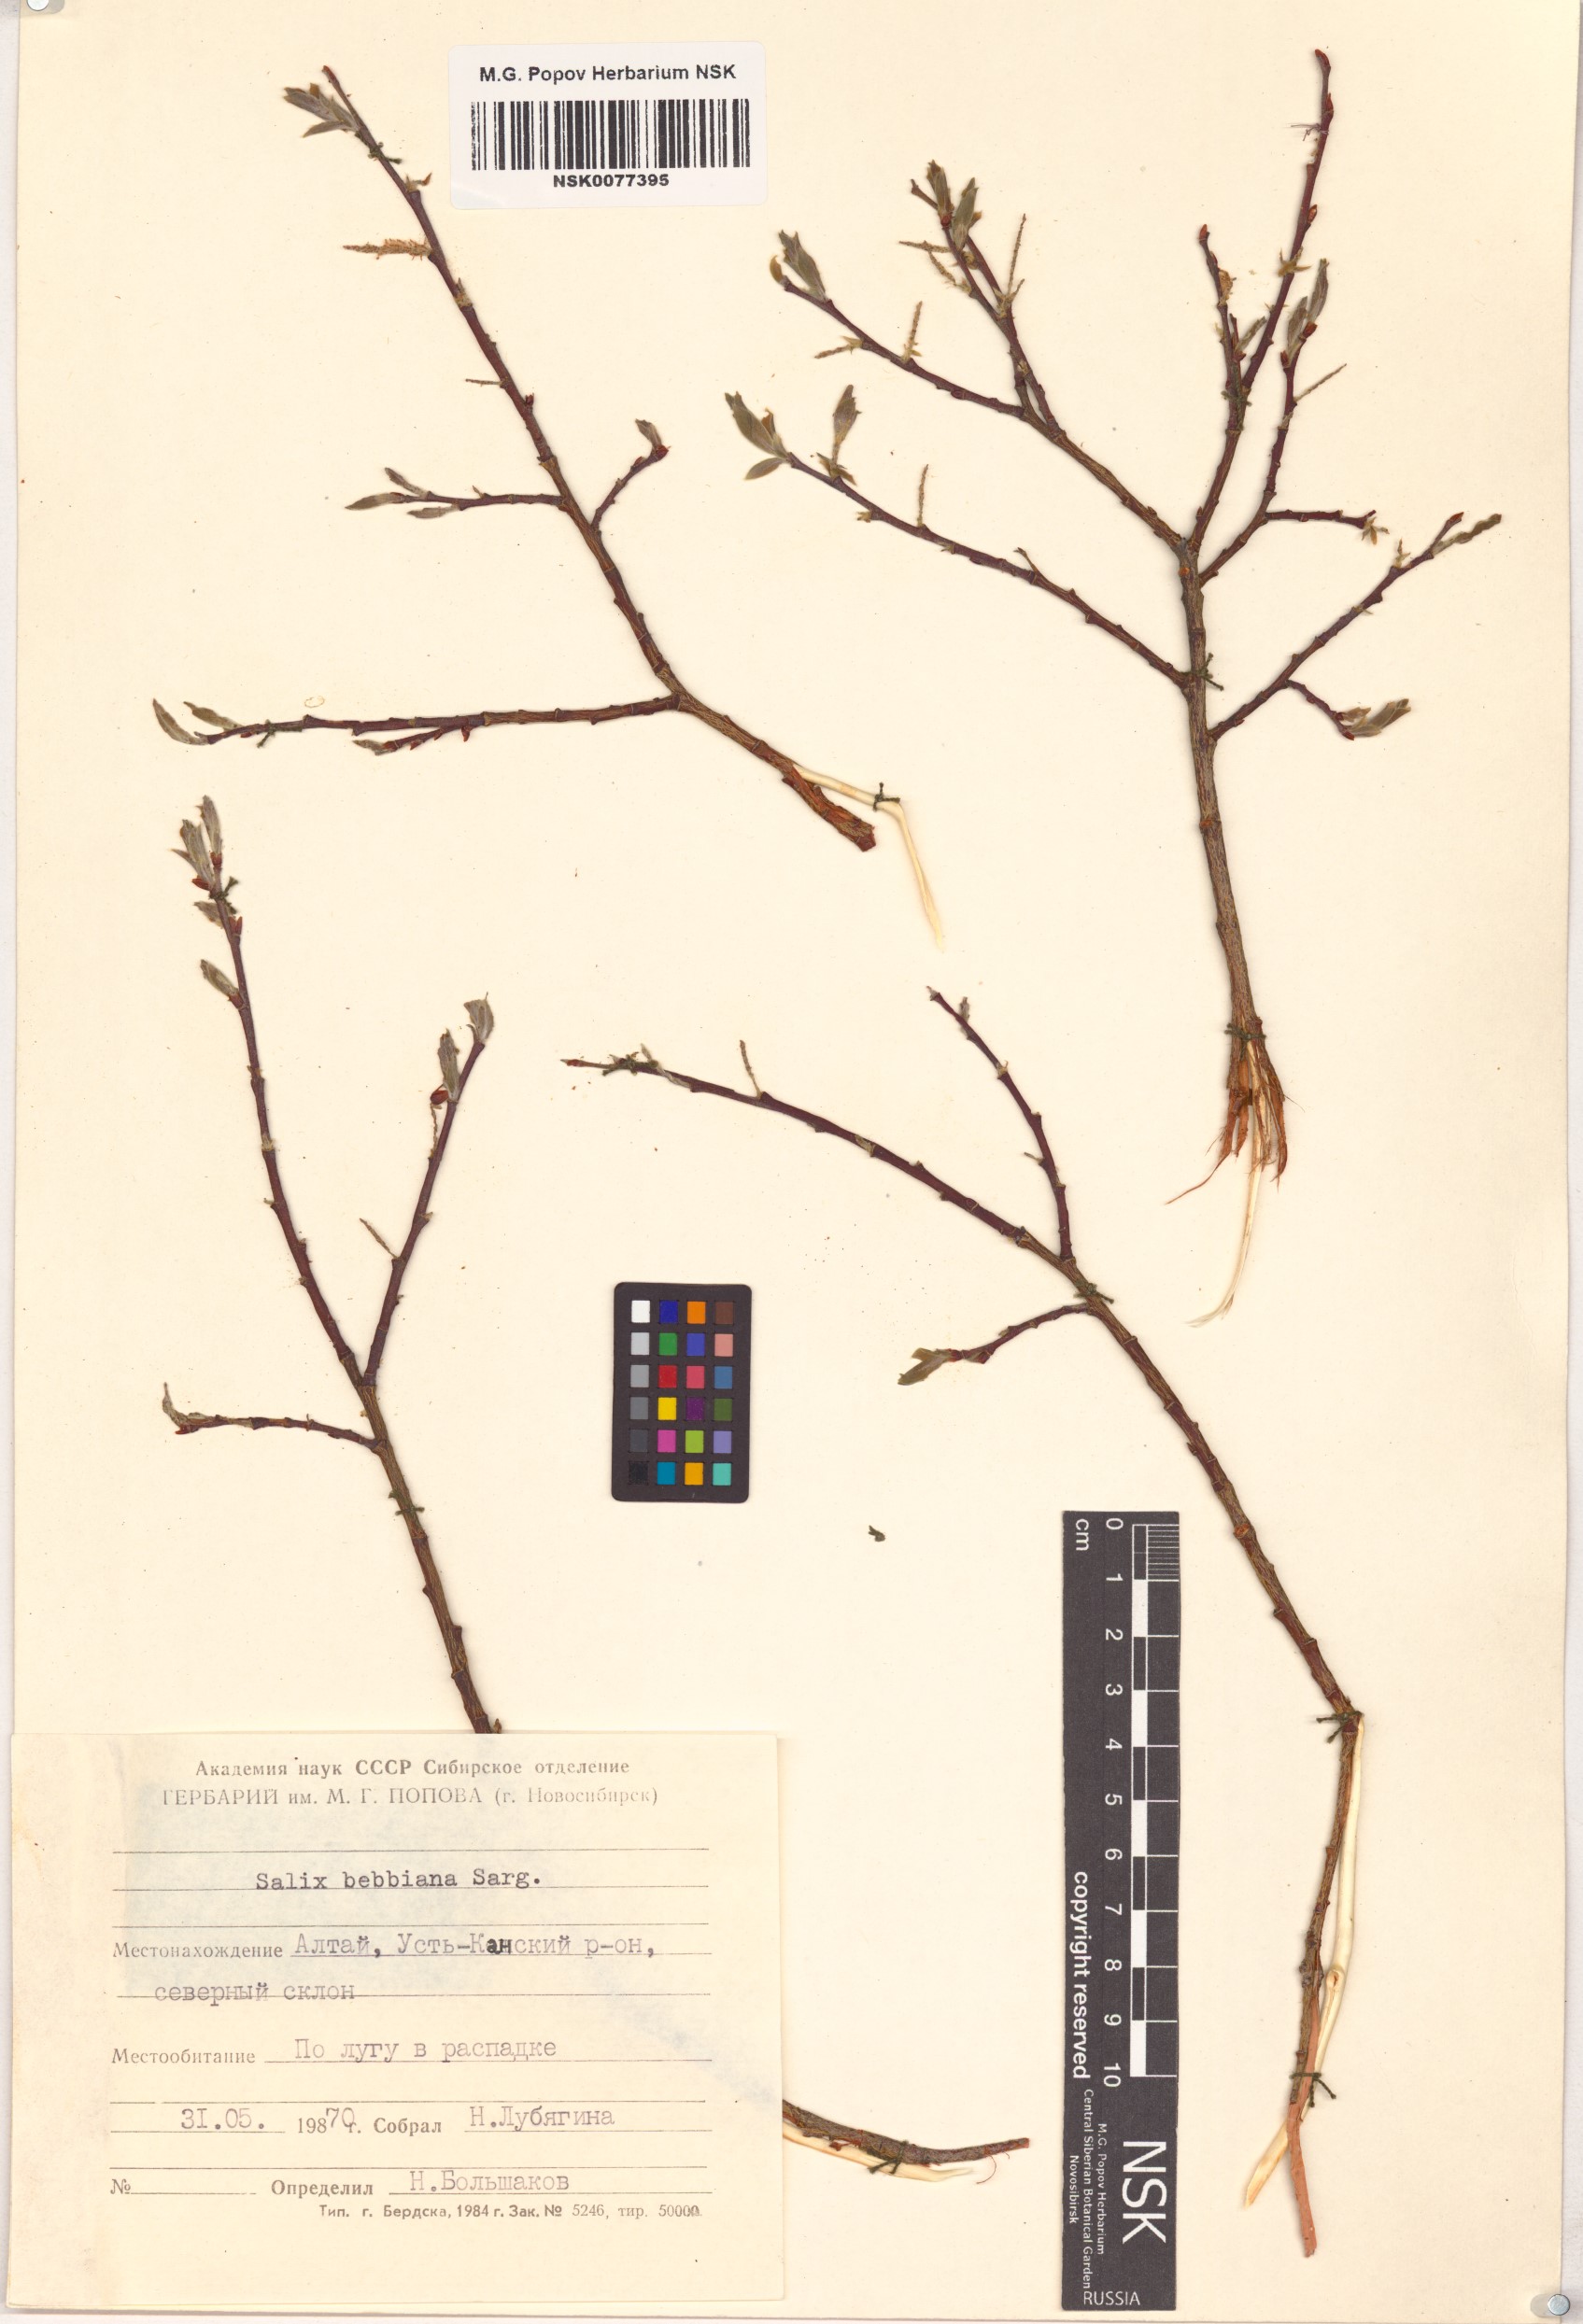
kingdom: Plantae
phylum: Tracheophyta
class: Magnoliopsida
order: Malpighiales
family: Salicaceae
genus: Salix
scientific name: Salix bebbiana
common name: Bebb's willow
